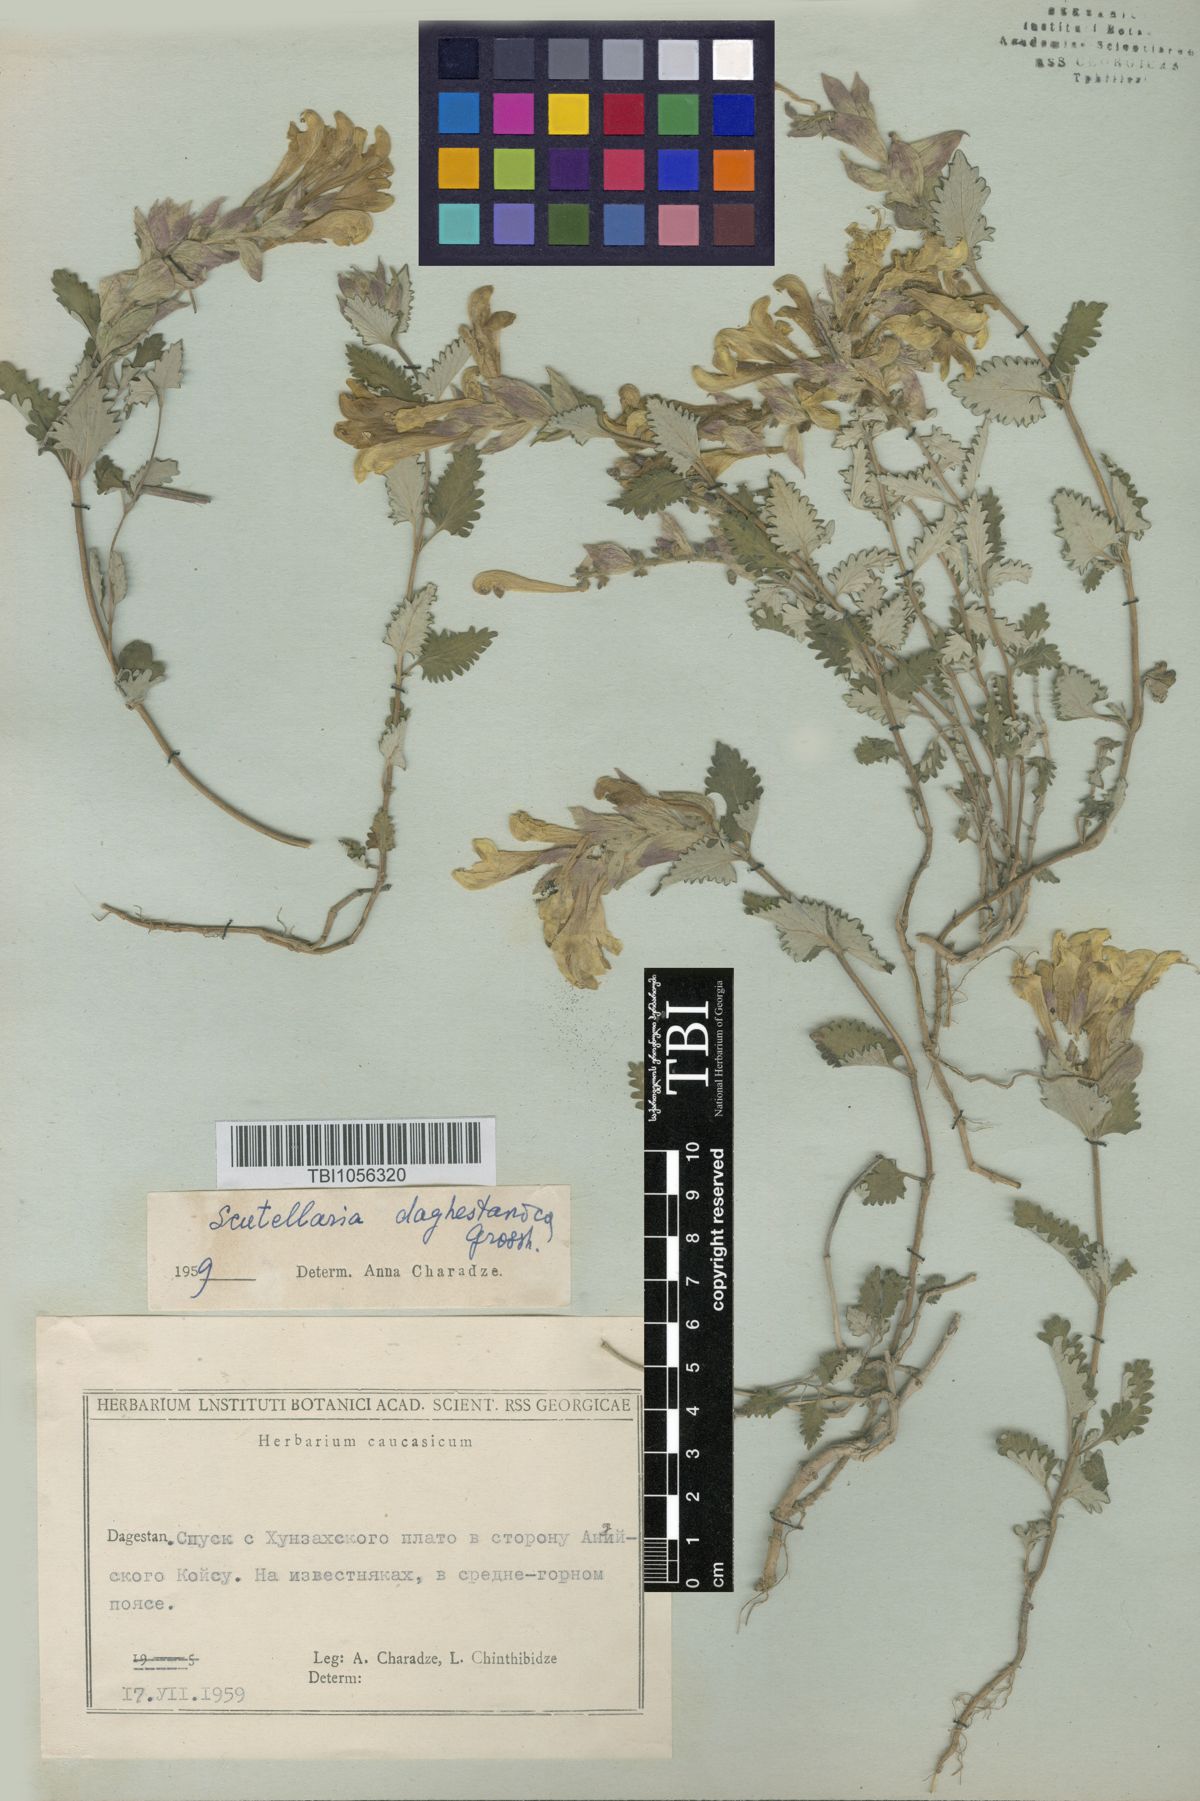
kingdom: Plantae
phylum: Tracheophyta
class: Magnoliopsida
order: Lamiales
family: Lamiaceae
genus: Scutellaria
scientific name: Scutellaria daghestanica
